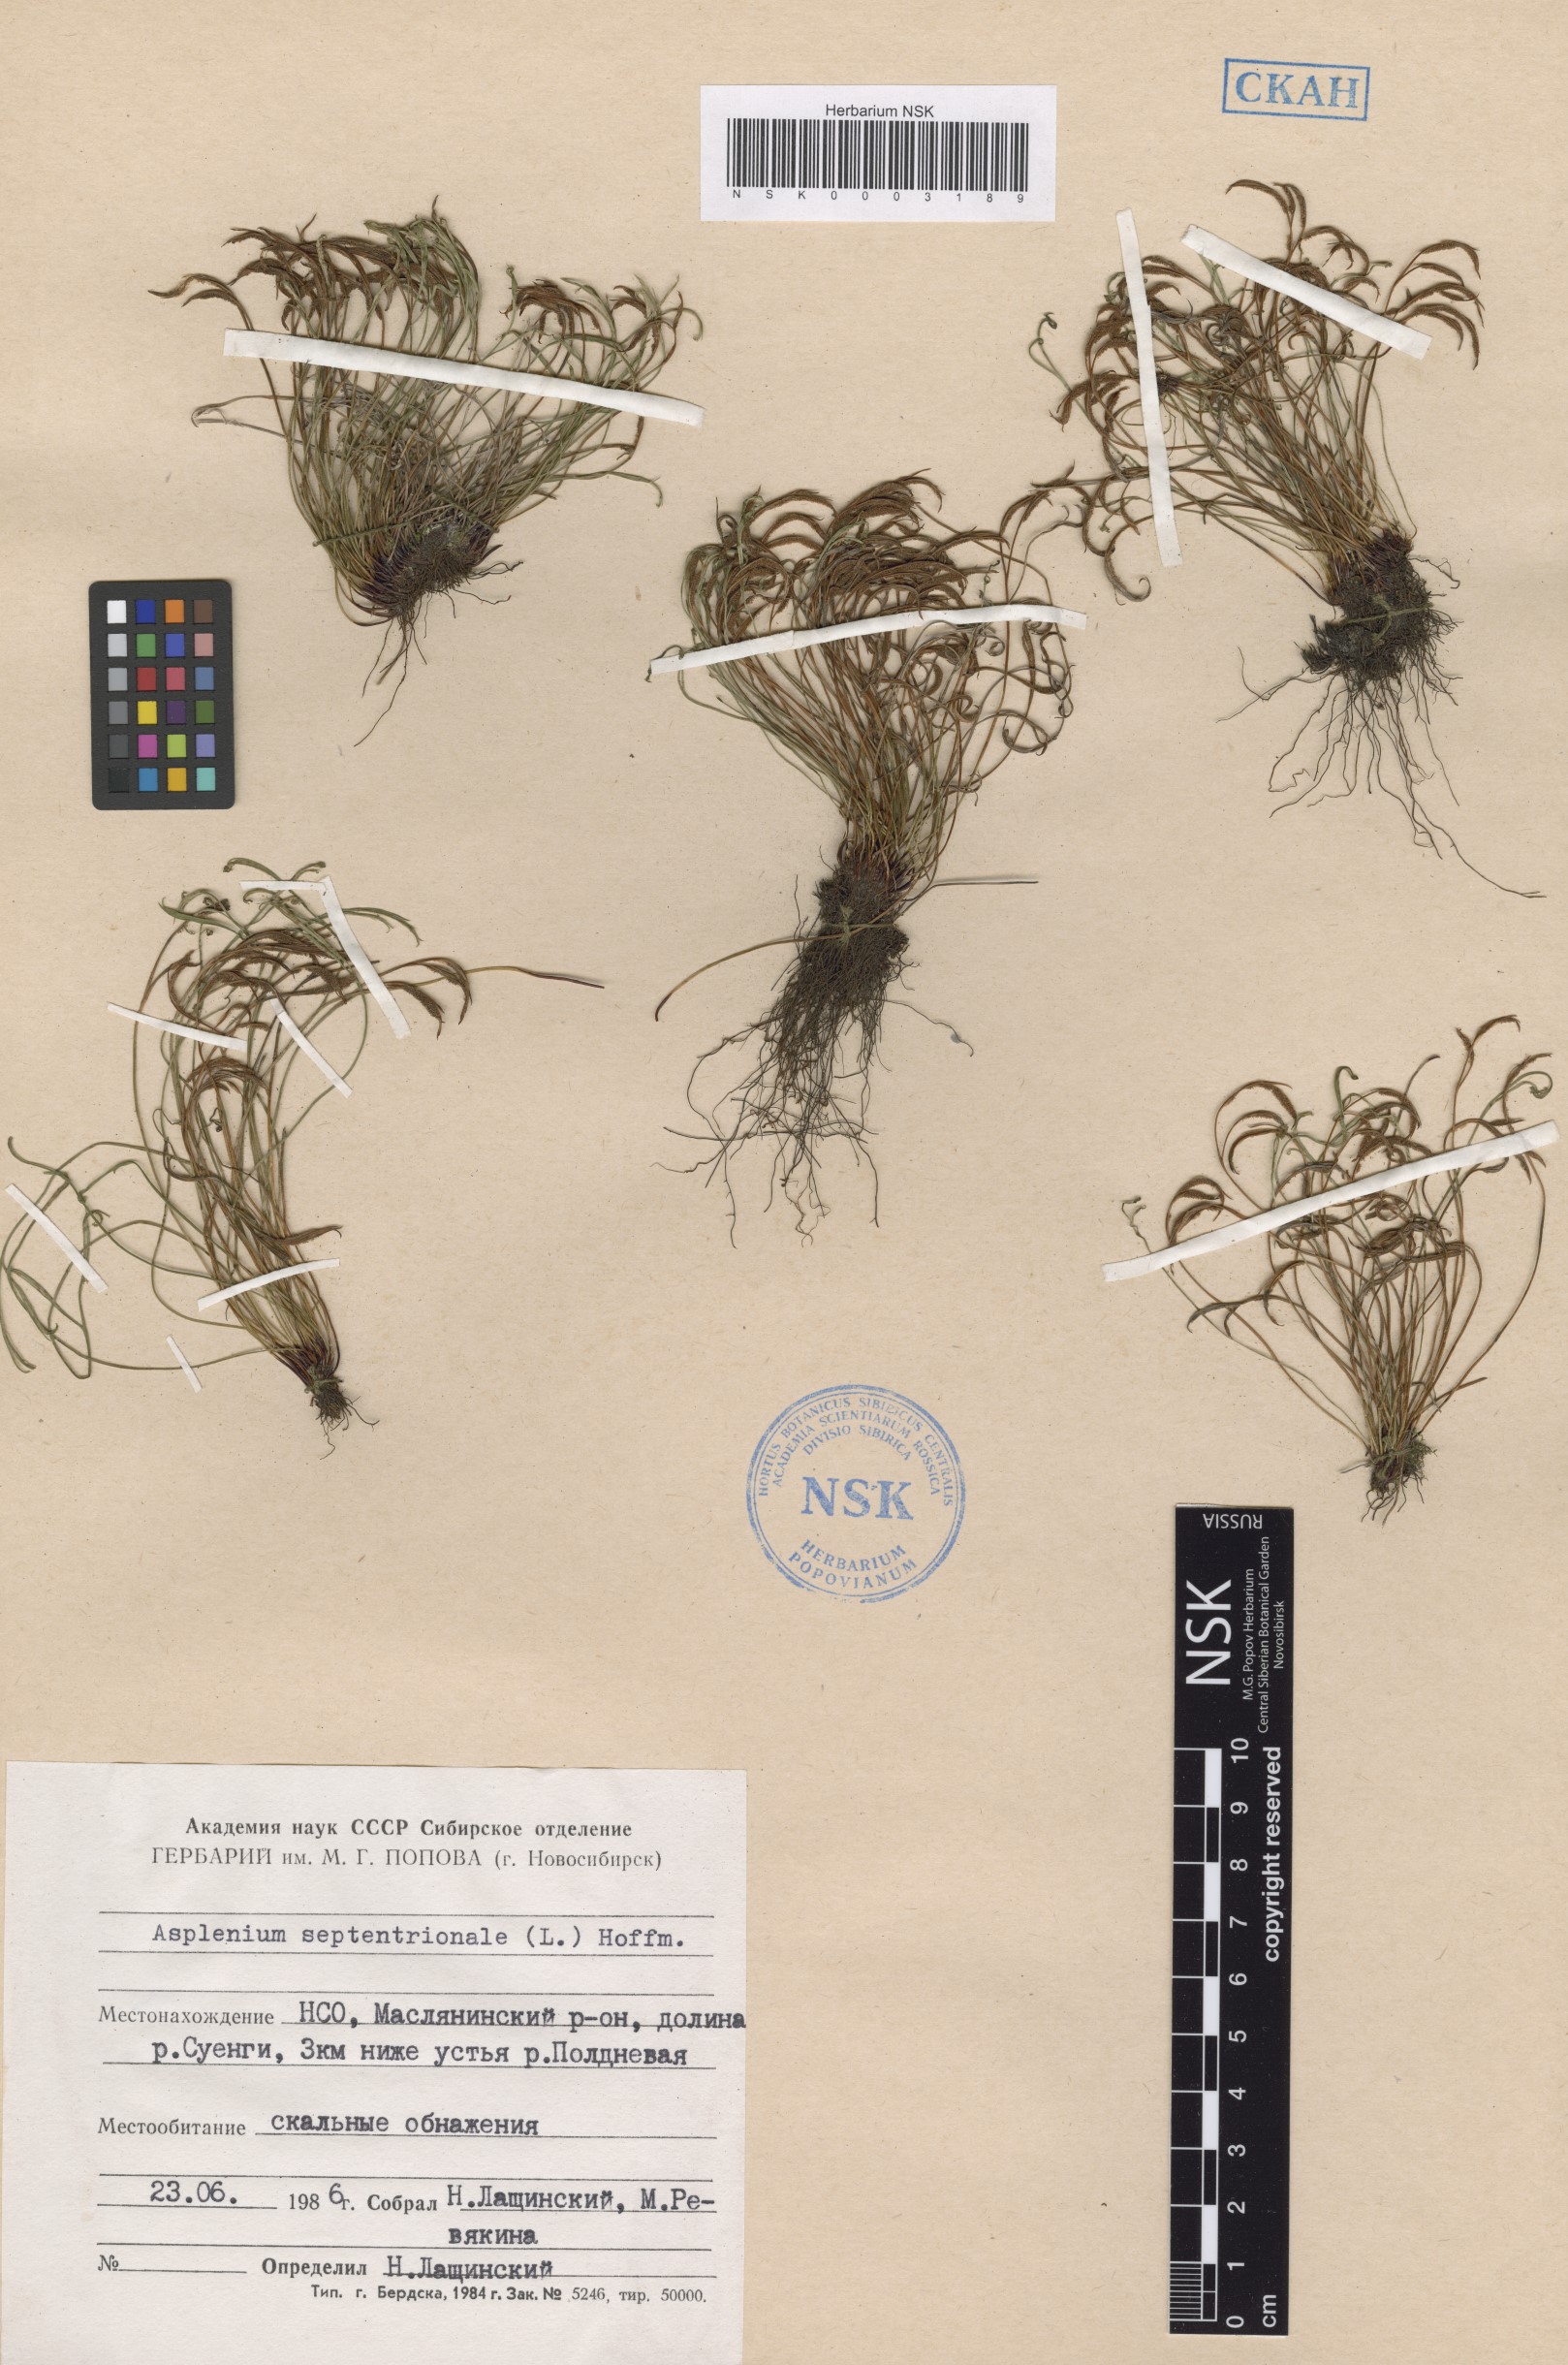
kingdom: Plantae
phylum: Tracheophyta
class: Polypodiopsida
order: Polypodiales
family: Aspleniaceae
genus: Asplenium
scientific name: Asplenium septentrionale
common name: Forked spleenwort
